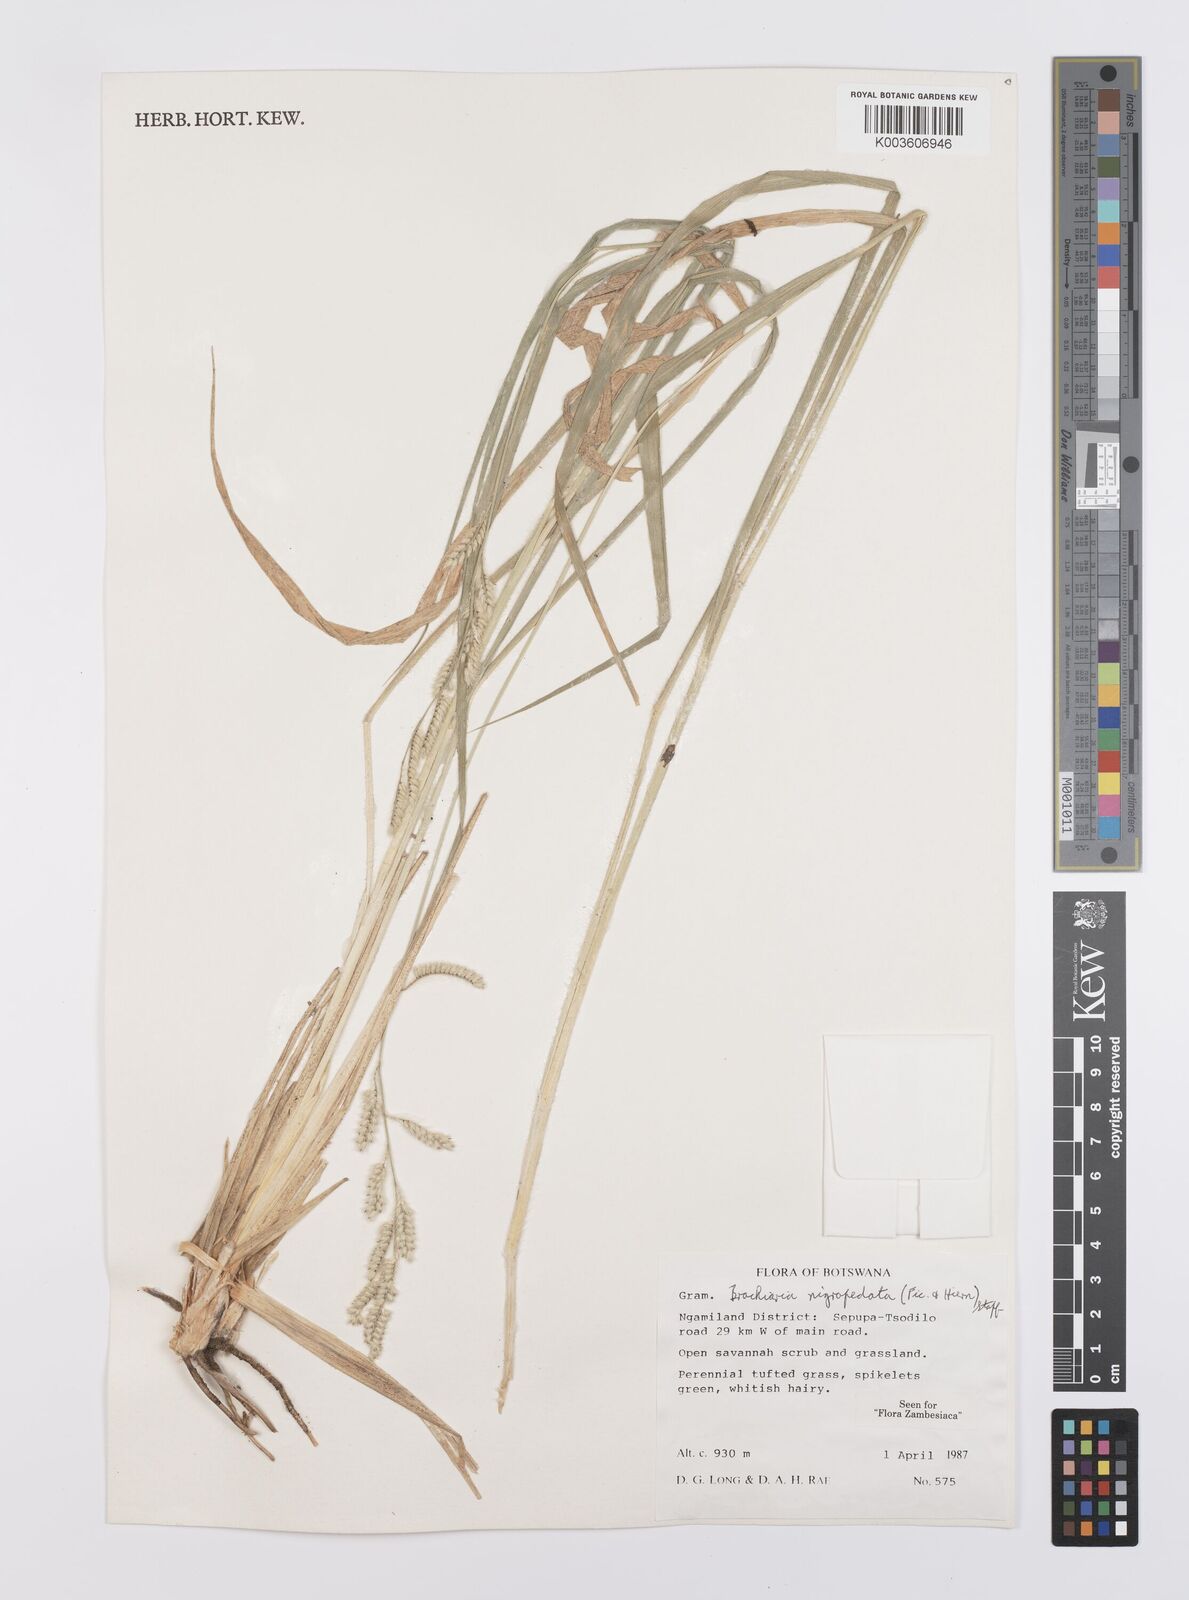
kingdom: Plantae
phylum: Tracheophyta
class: Liliopsida
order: Poales
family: Poaceae
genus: Urochloa
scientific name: Urochloa nigropedata
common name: Spotted signal grass
